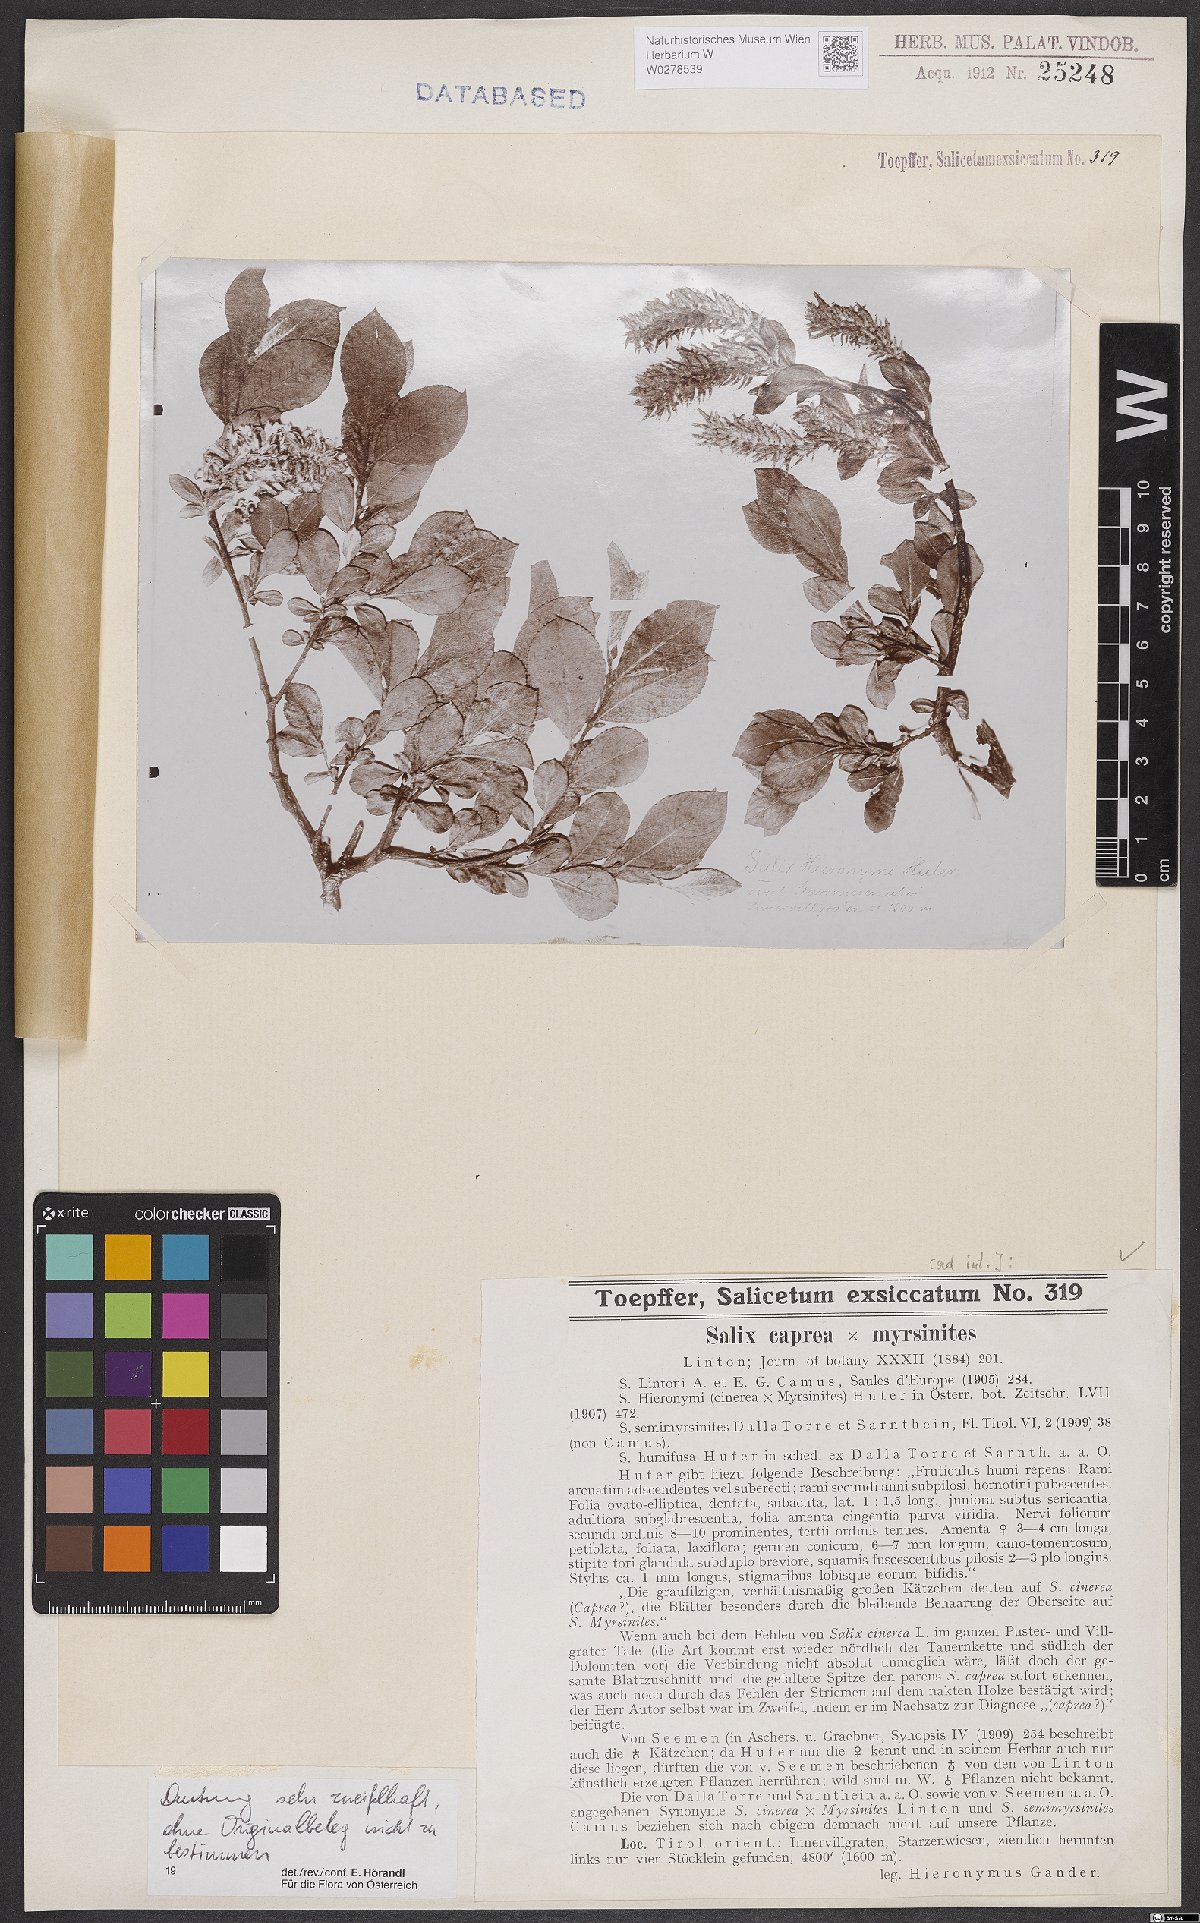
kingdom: Plantae
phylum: Tracheophyta
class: Magnoliopsida
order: Malpighiales
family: Salicaceae
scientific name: Salicaceae
